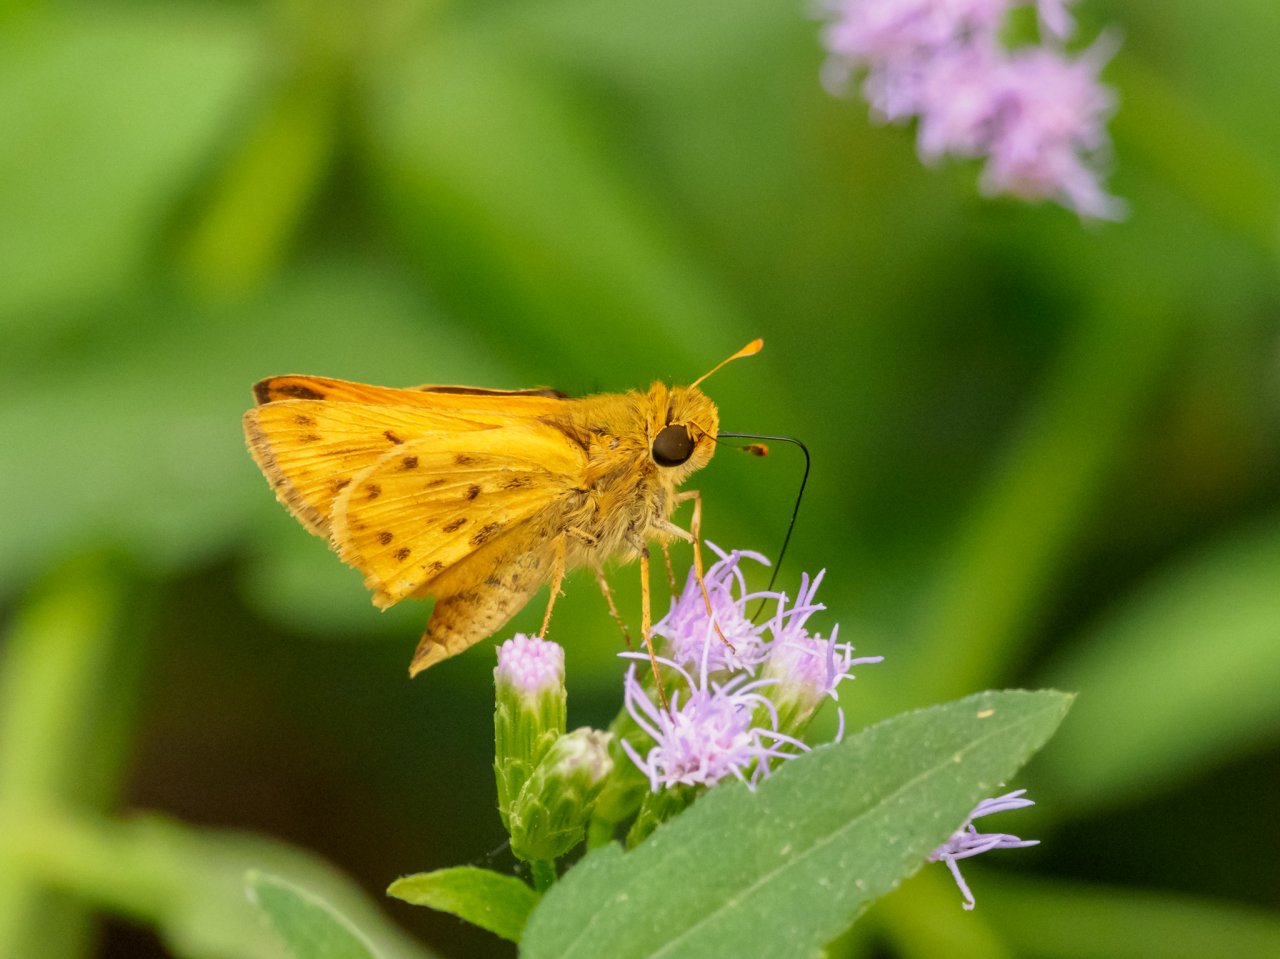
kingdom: Animalia
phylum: Arthropoda
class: Insecta
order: Lepidoptera
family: Hesperiidae
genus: Hylephila
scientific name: Hylephila phyleus
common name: Fiery Skipper
